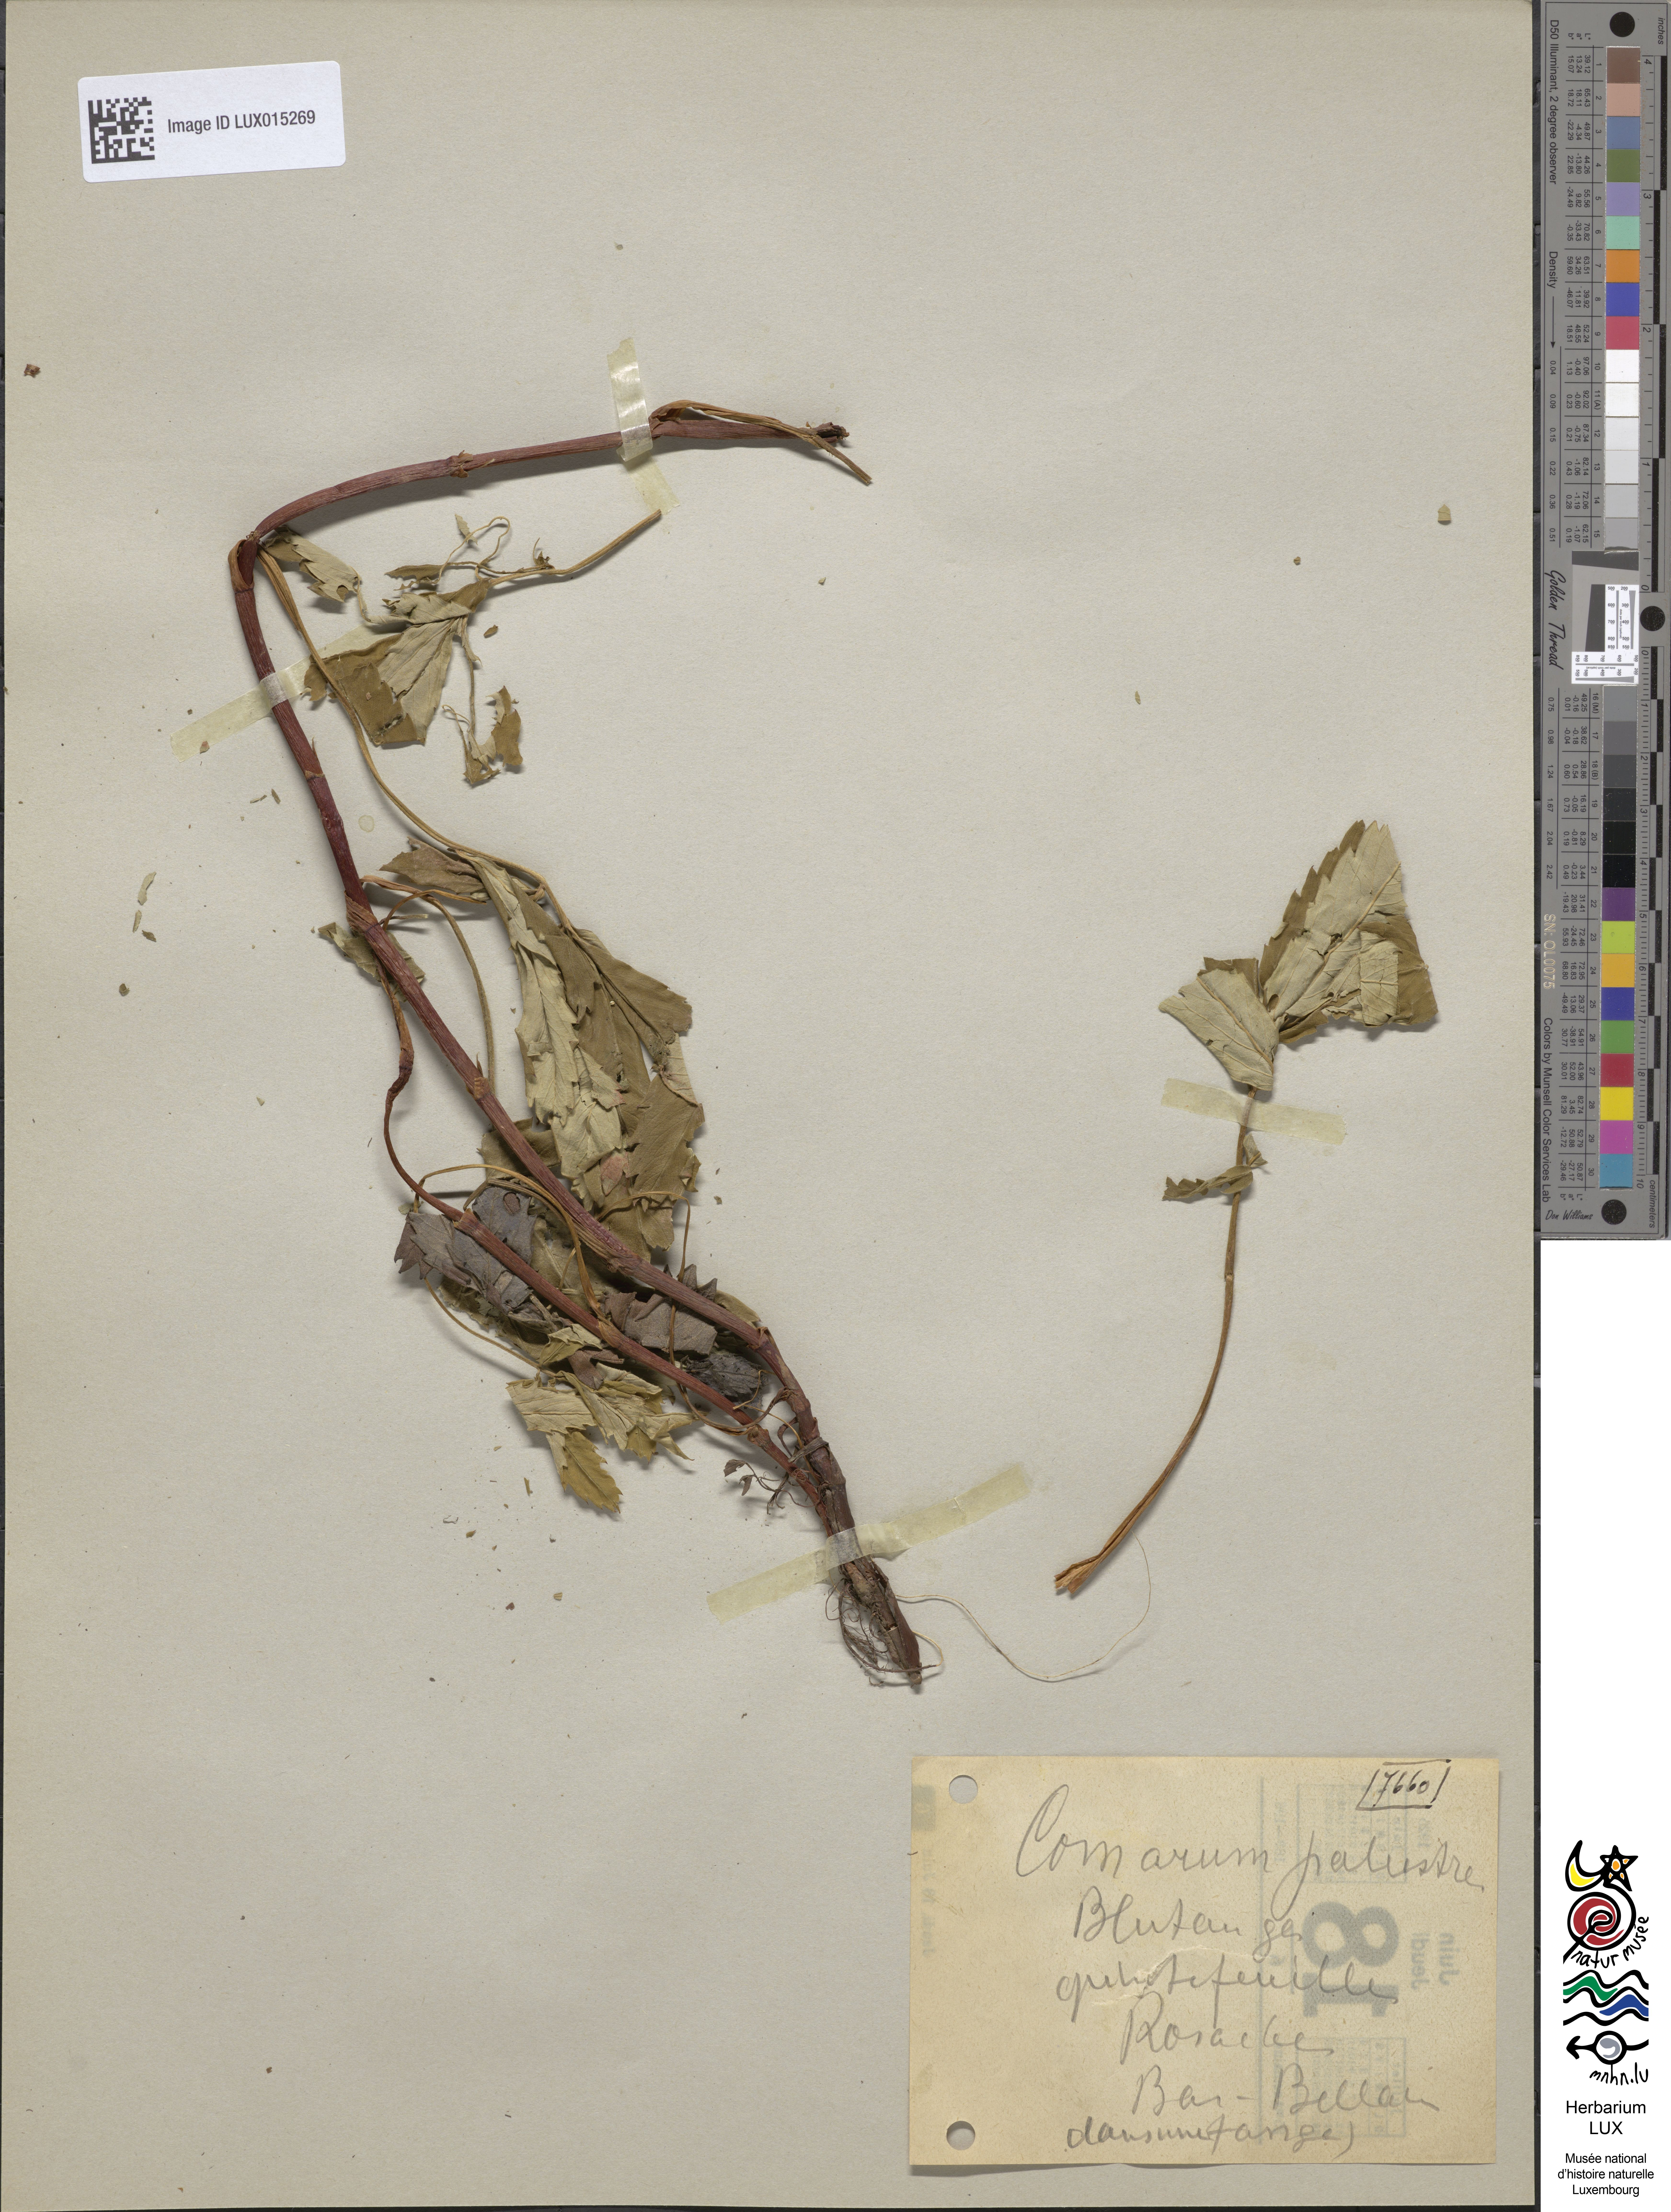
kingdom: Plantae
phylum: Tracheophyta
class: Magnoliopsida
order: Rosales
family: Rosaceae
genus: Comarum
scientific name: Comarum palustre
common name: Marsh cinquefoil
